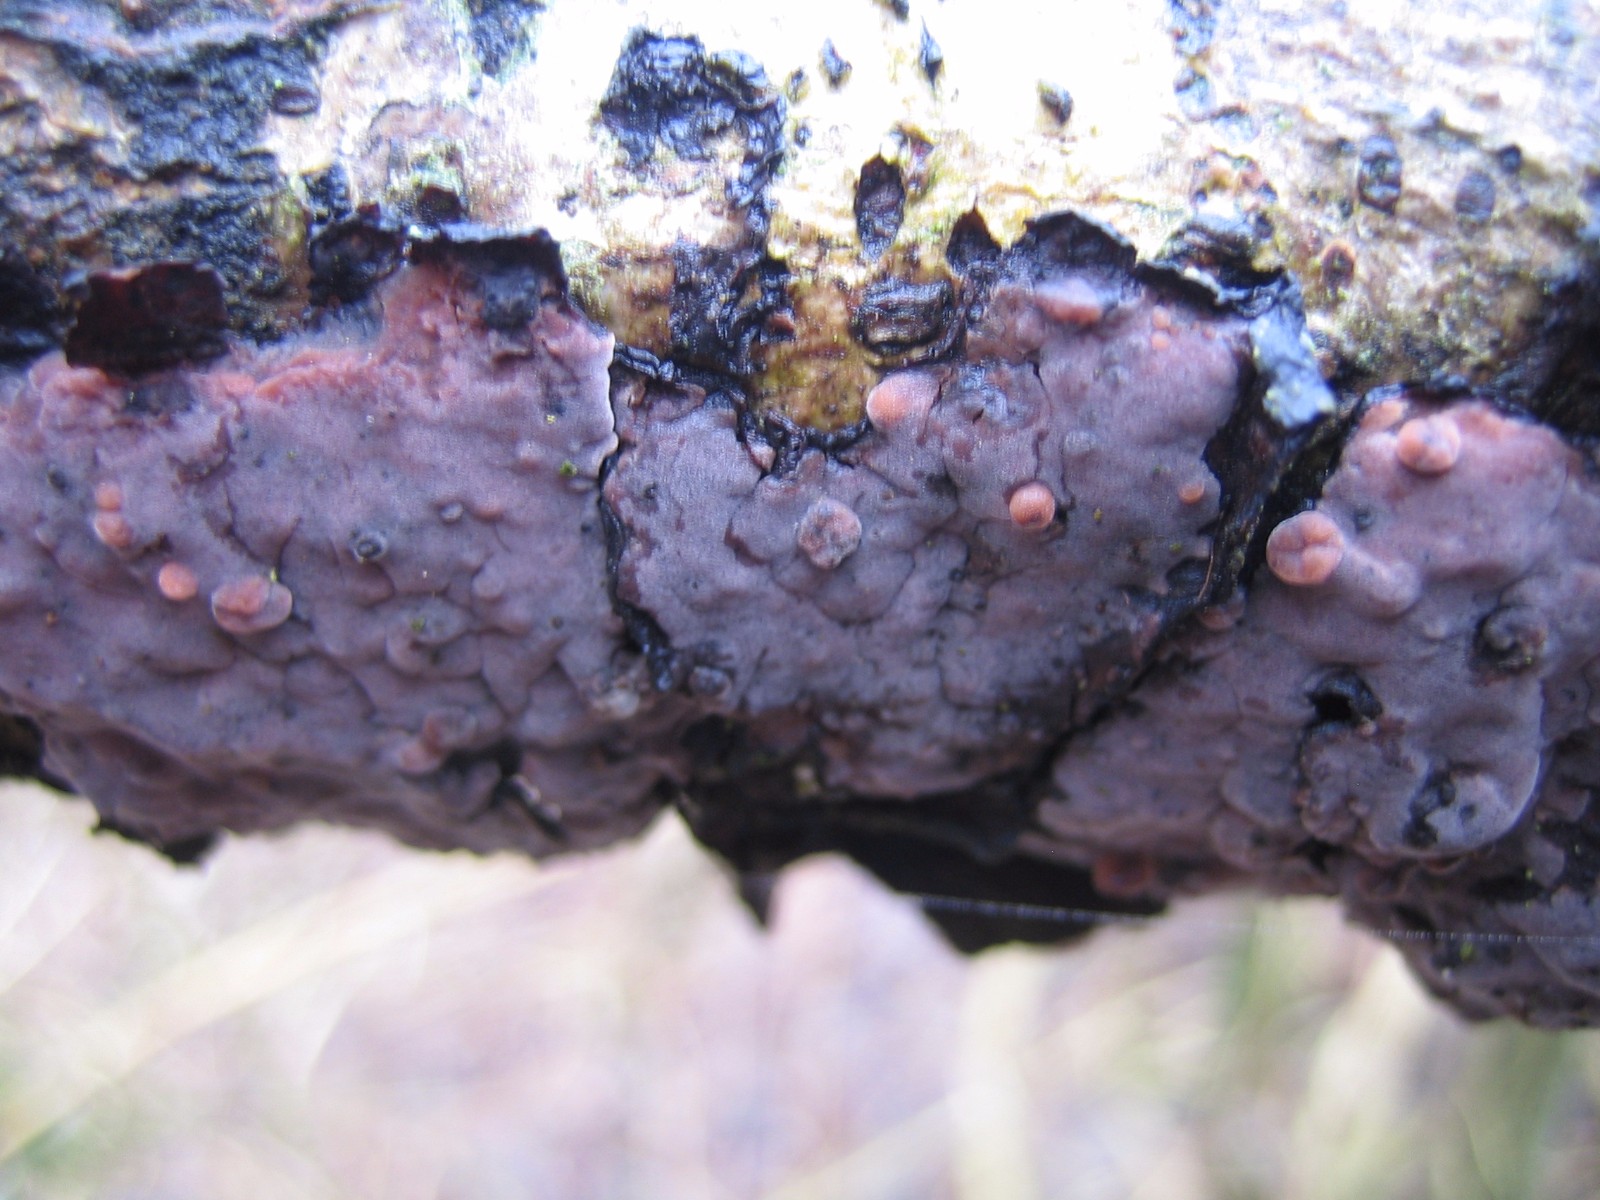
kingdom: Fungi
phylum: Basidiomycota
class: Agaricomycetes
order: Russulales
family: Peniophoraceae
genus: Peniophora
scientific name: Peniophora quercina
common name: ege-voksskind
